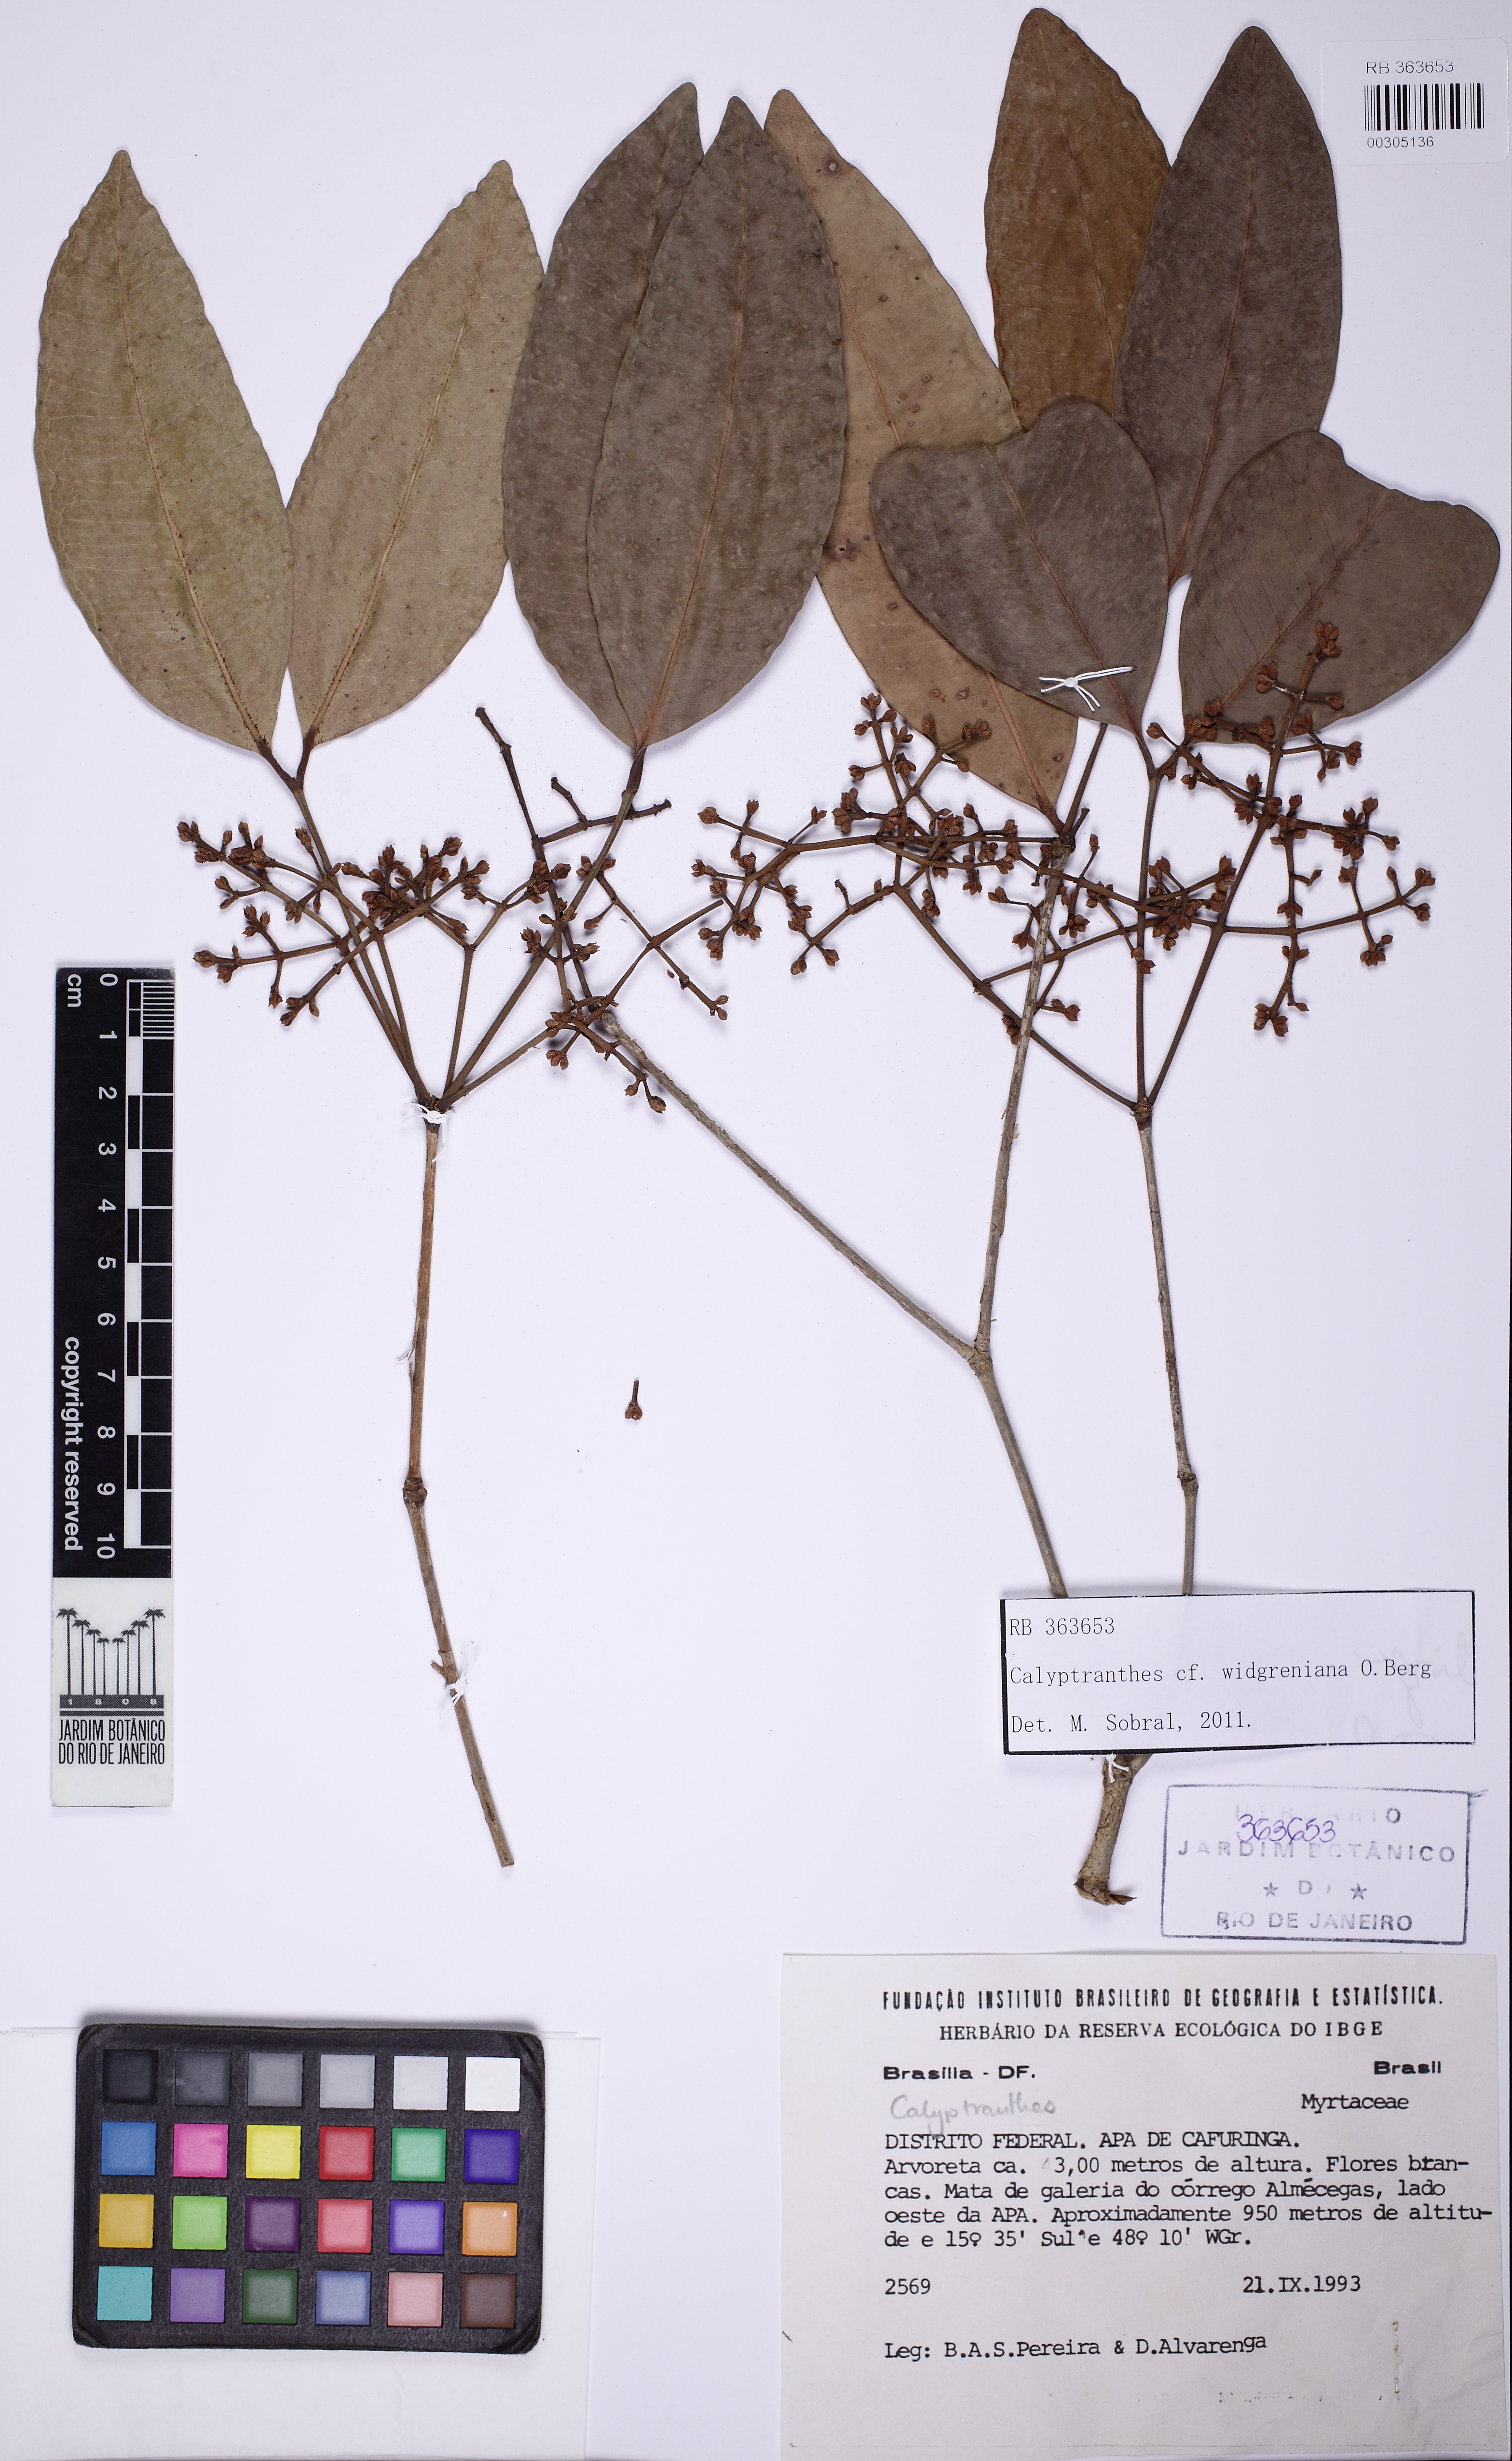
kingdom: Plantae
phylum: Tracheophyta
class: Magnoliopsida
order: Myrtales
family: Myrtaceae
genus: Calyptranthes
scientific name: Calyptranthes widgreniana
